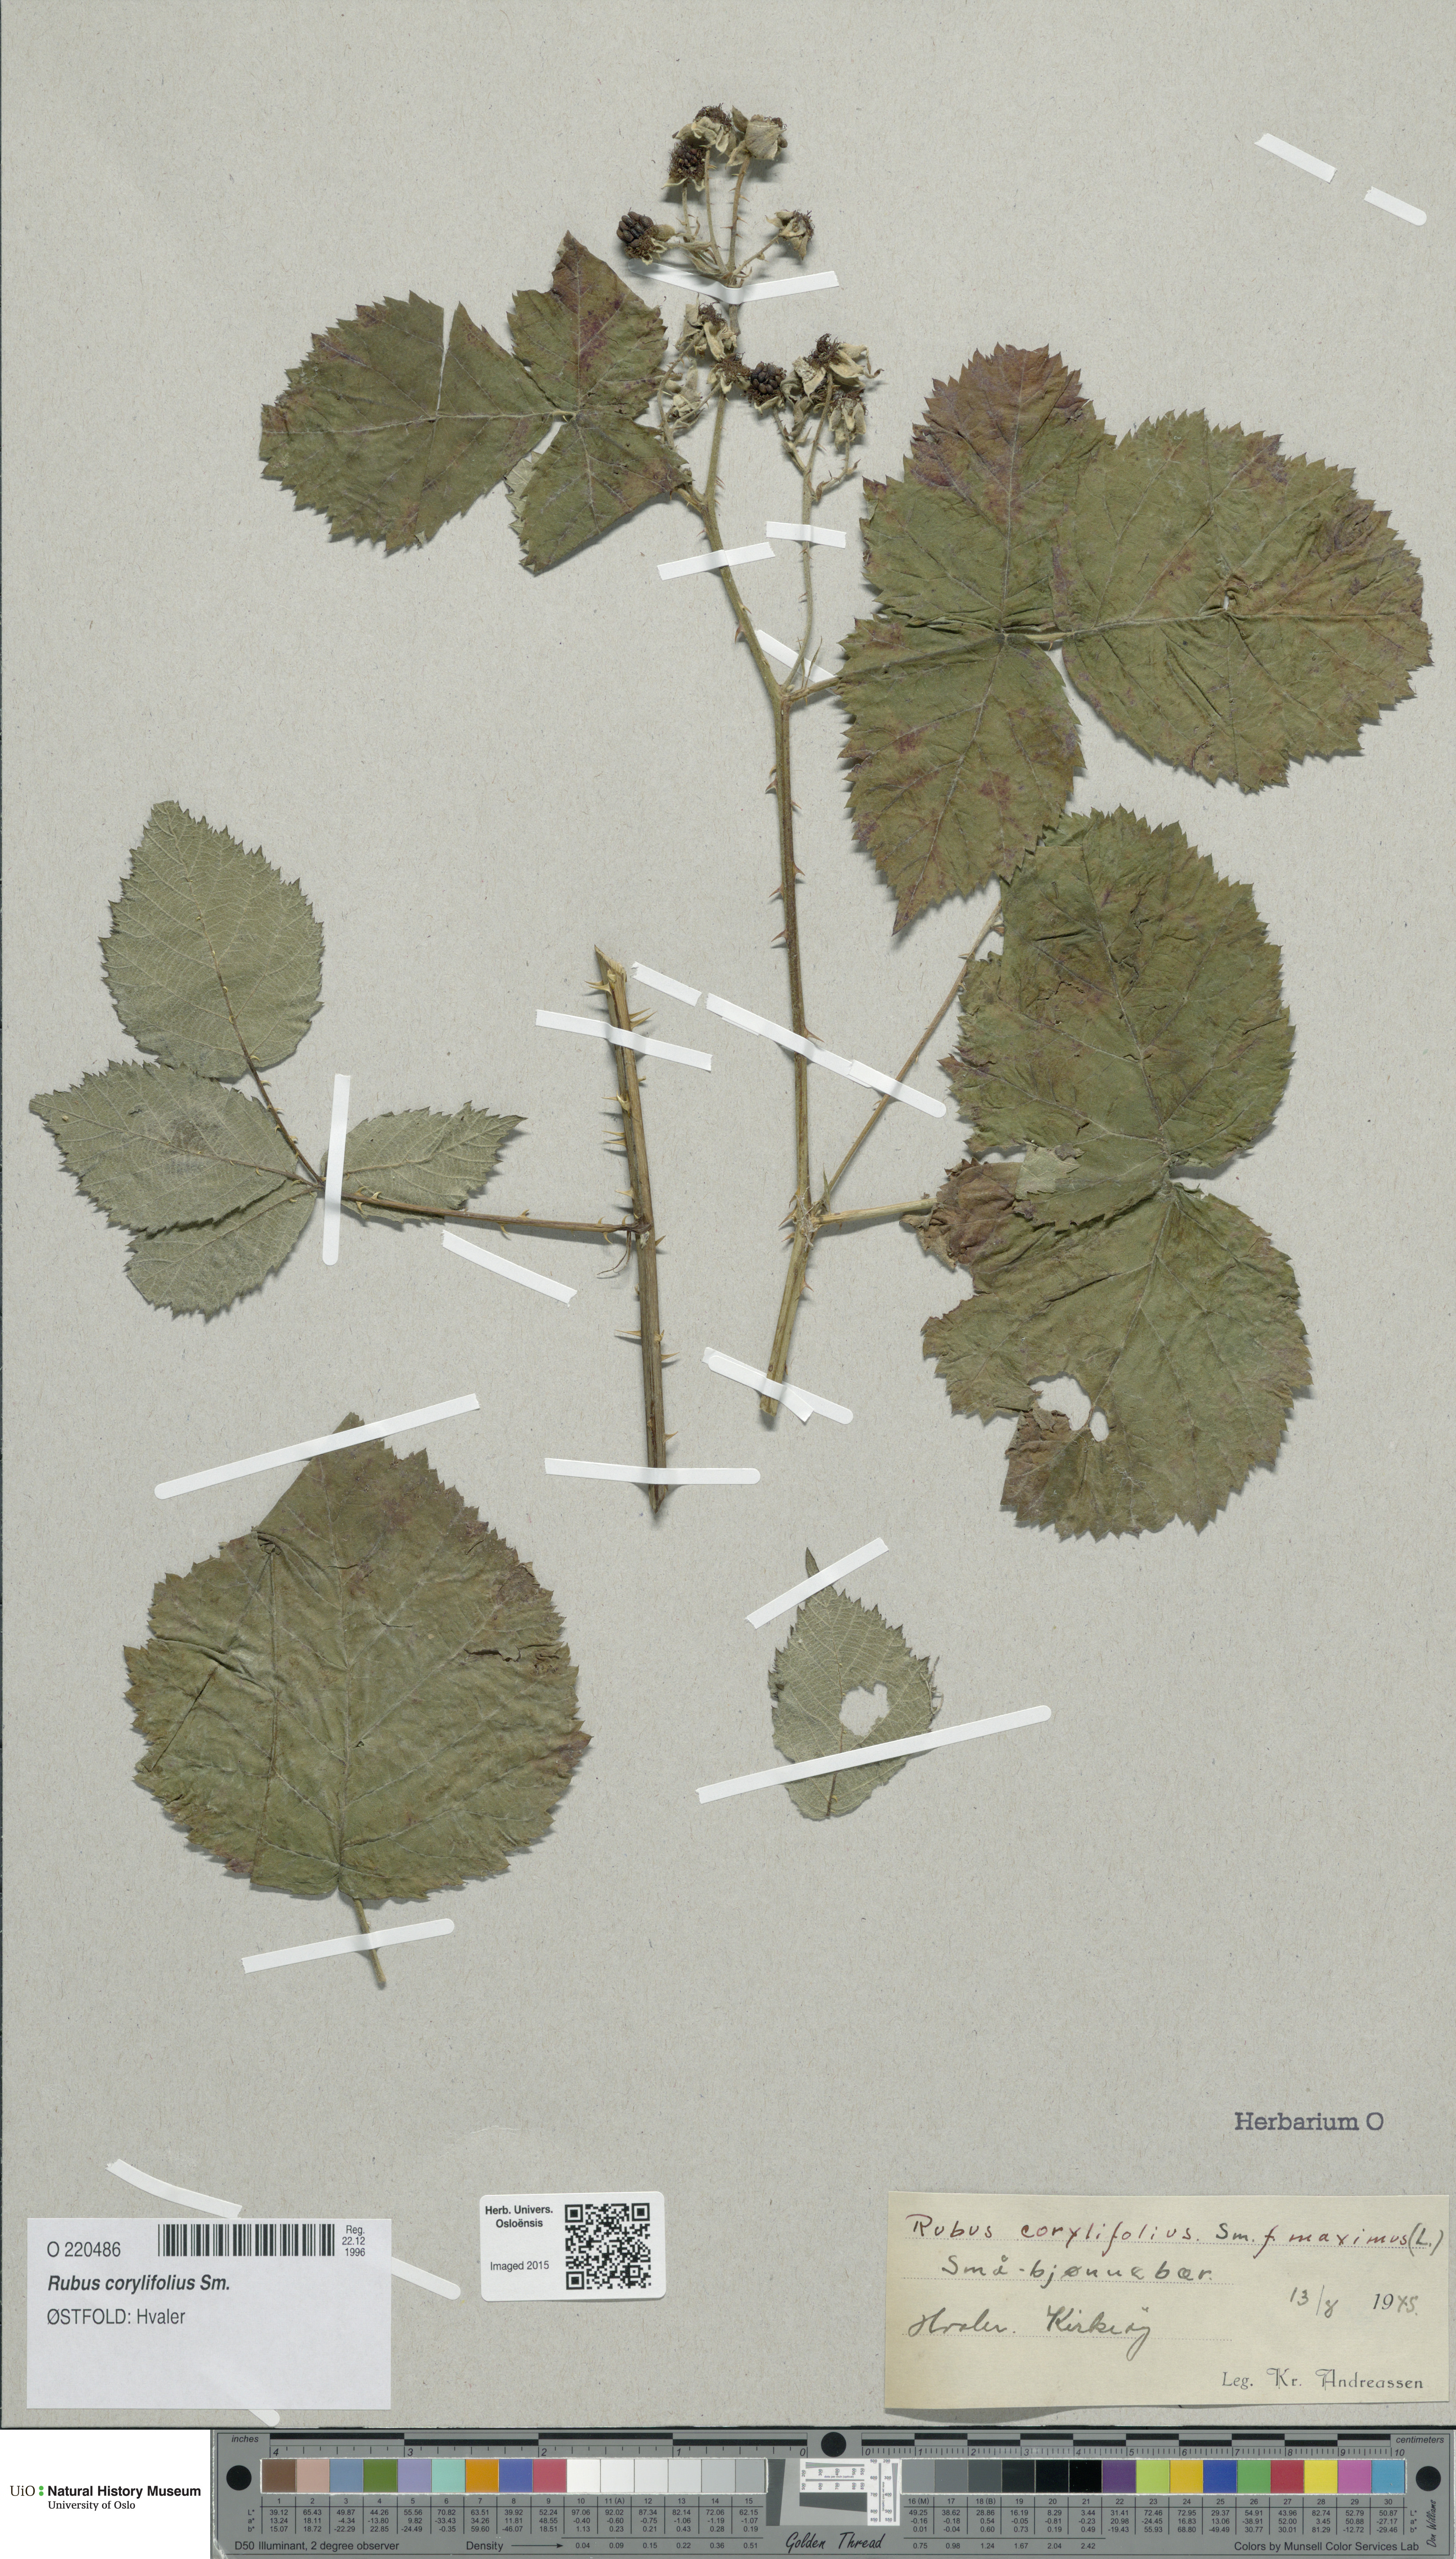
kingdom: Plantae
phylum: Tracheophyta
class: Magnoliopsida
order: Rosales
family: Rosaceae
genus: Rubus
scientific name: Rubus
